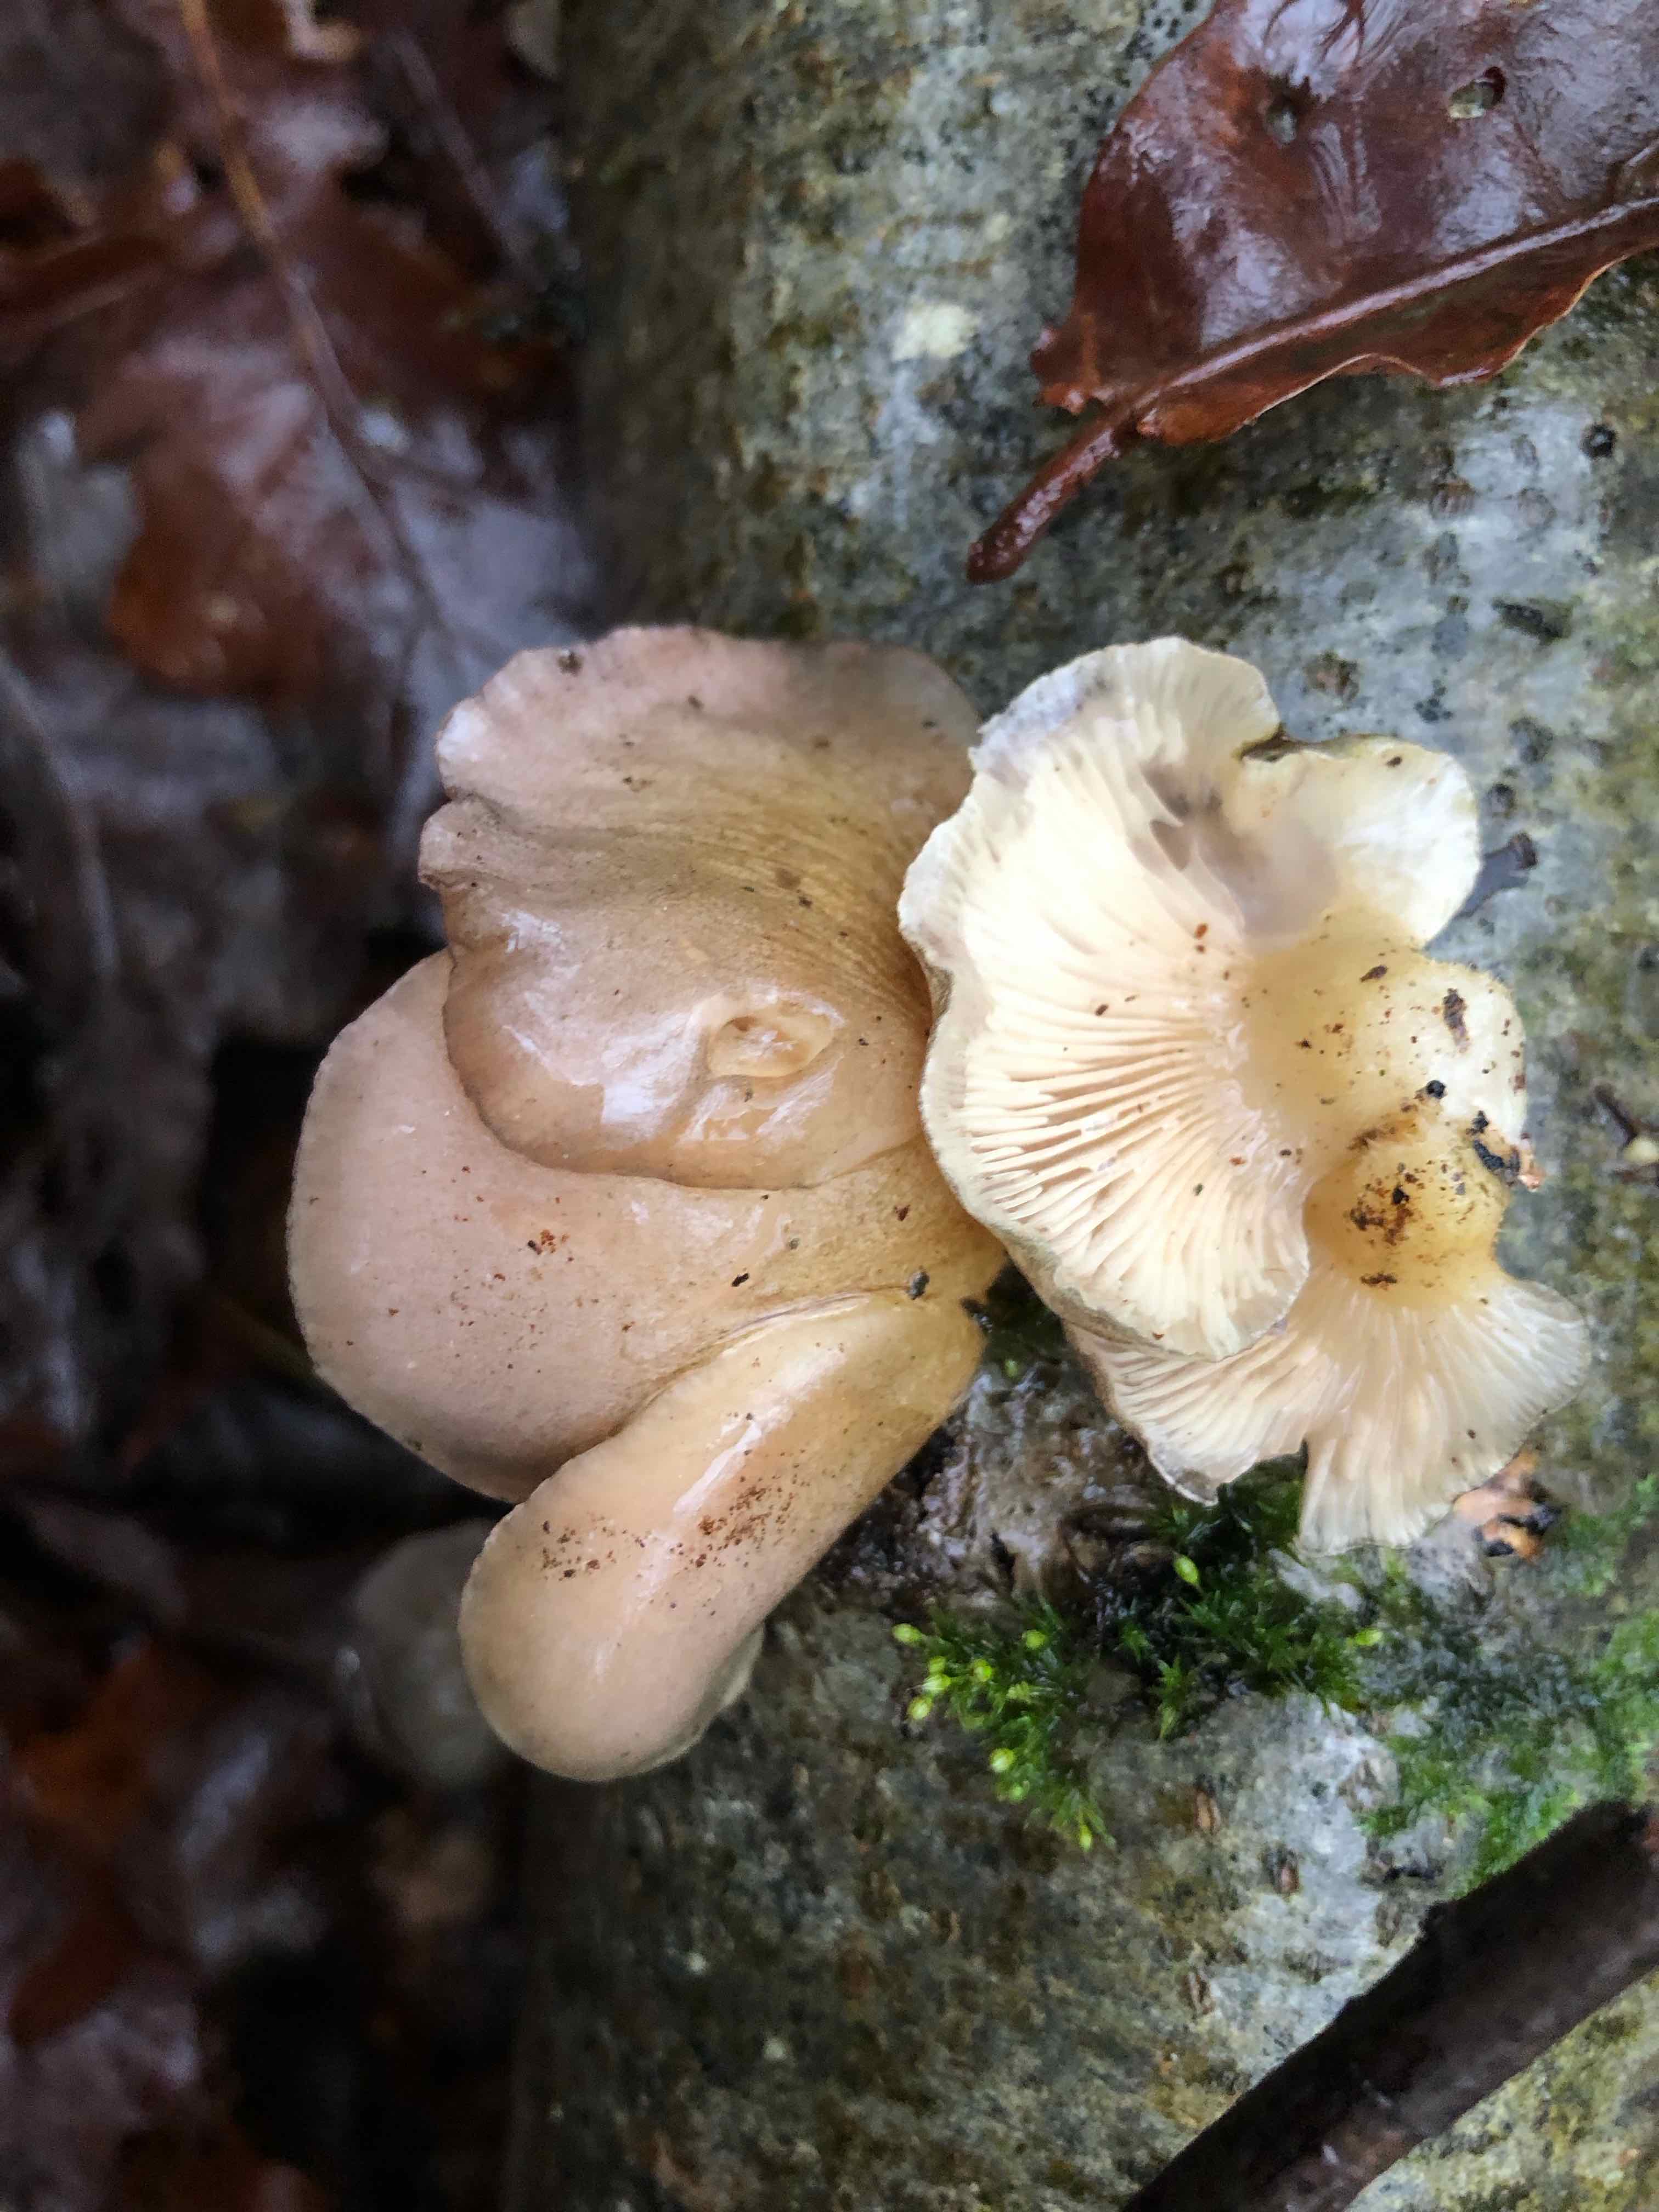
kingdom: Fungi
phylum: Basidiomycota
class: Agaricomycetes
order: Agaricales
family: Sarcomyxaceae
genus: Sarcomyxa
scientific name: Sarcomyxa serotina
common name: gummihat
